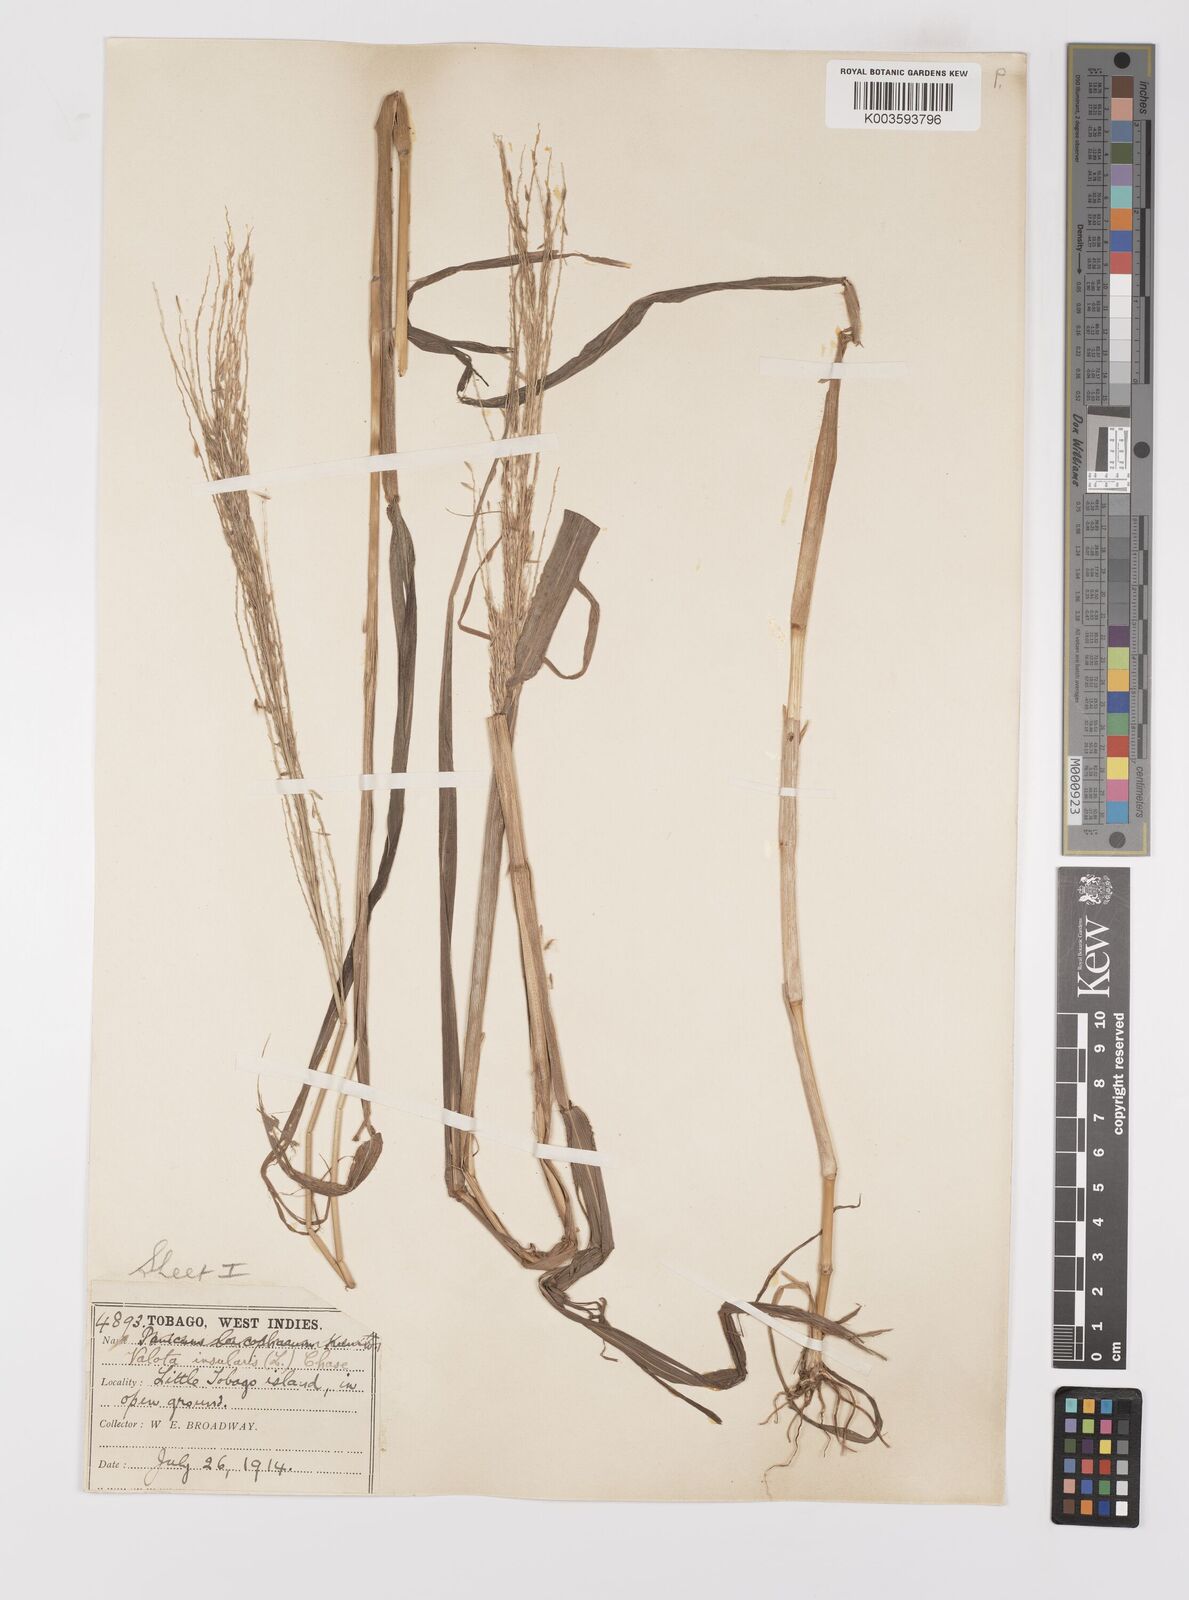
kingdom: Plantae
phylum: Tracheophyta
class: Liliopsida
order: Poales
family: Poaceae
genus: Digitaria
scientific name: Digitaria insularis
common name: Sourgrass
